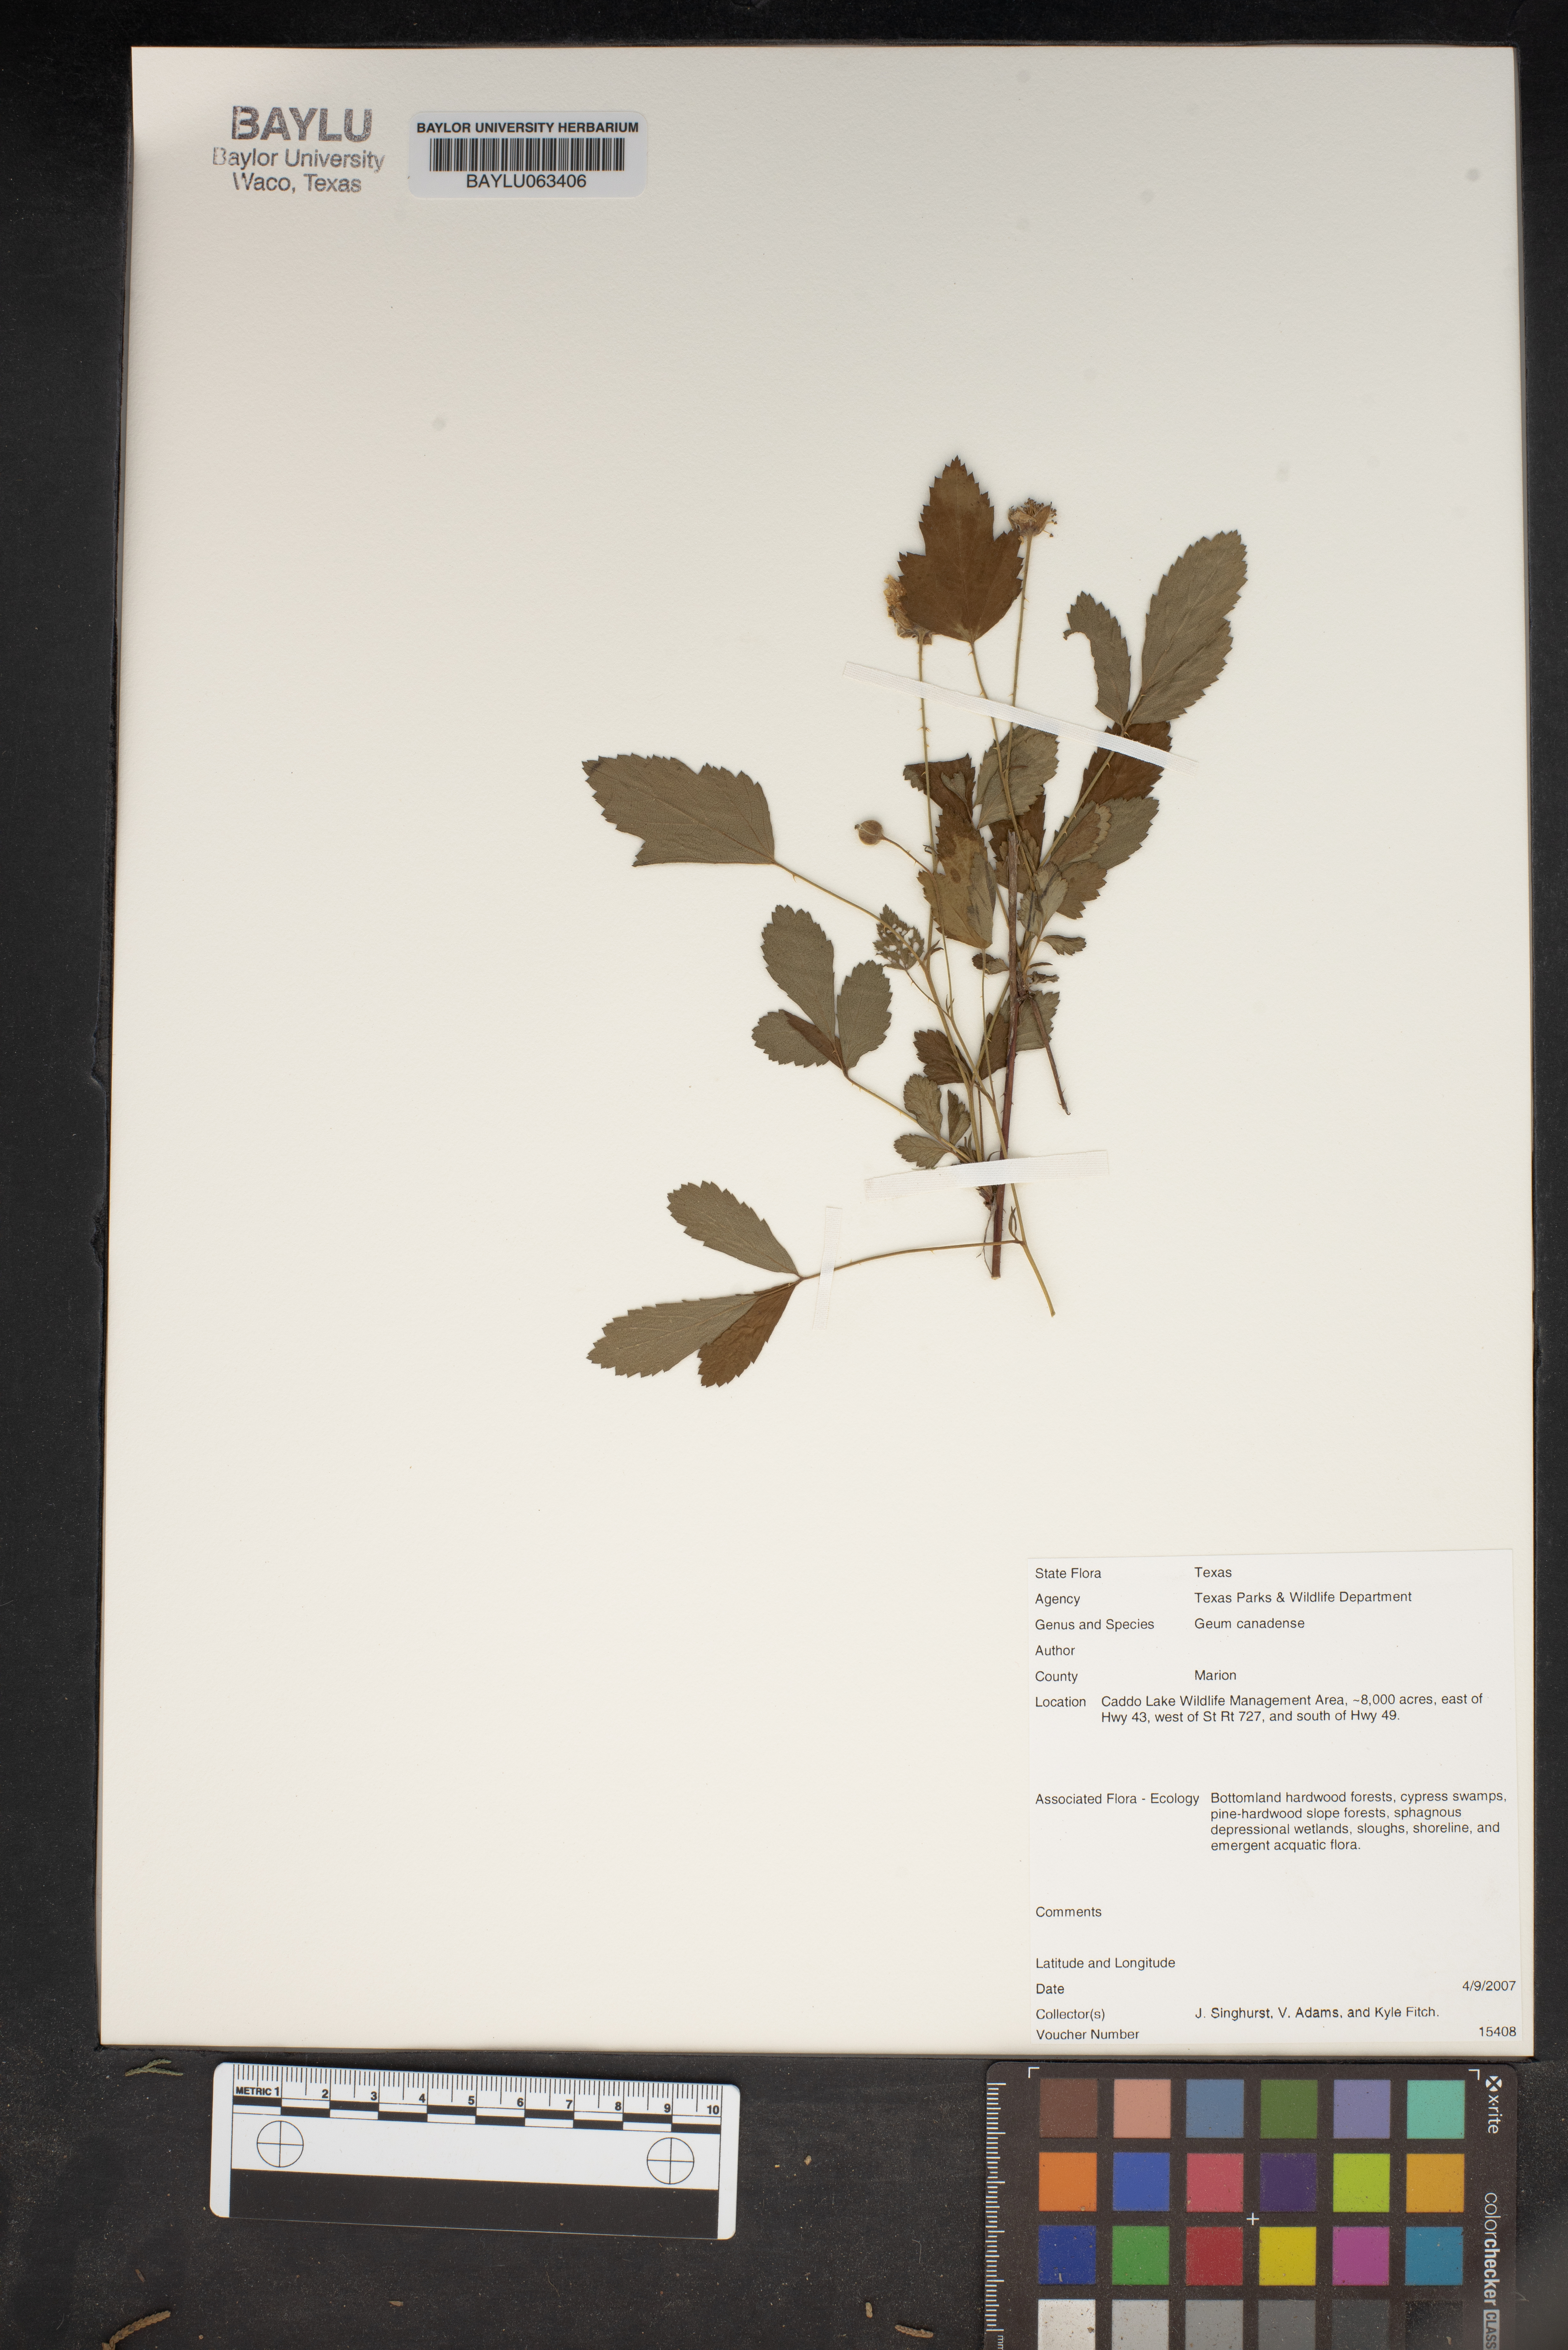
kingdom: Plantae
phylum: Tracheophyta
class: Magnoliopsida
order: Rosales
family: Rosaceae
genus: Geum
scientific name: Geum canadense
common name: White avens
